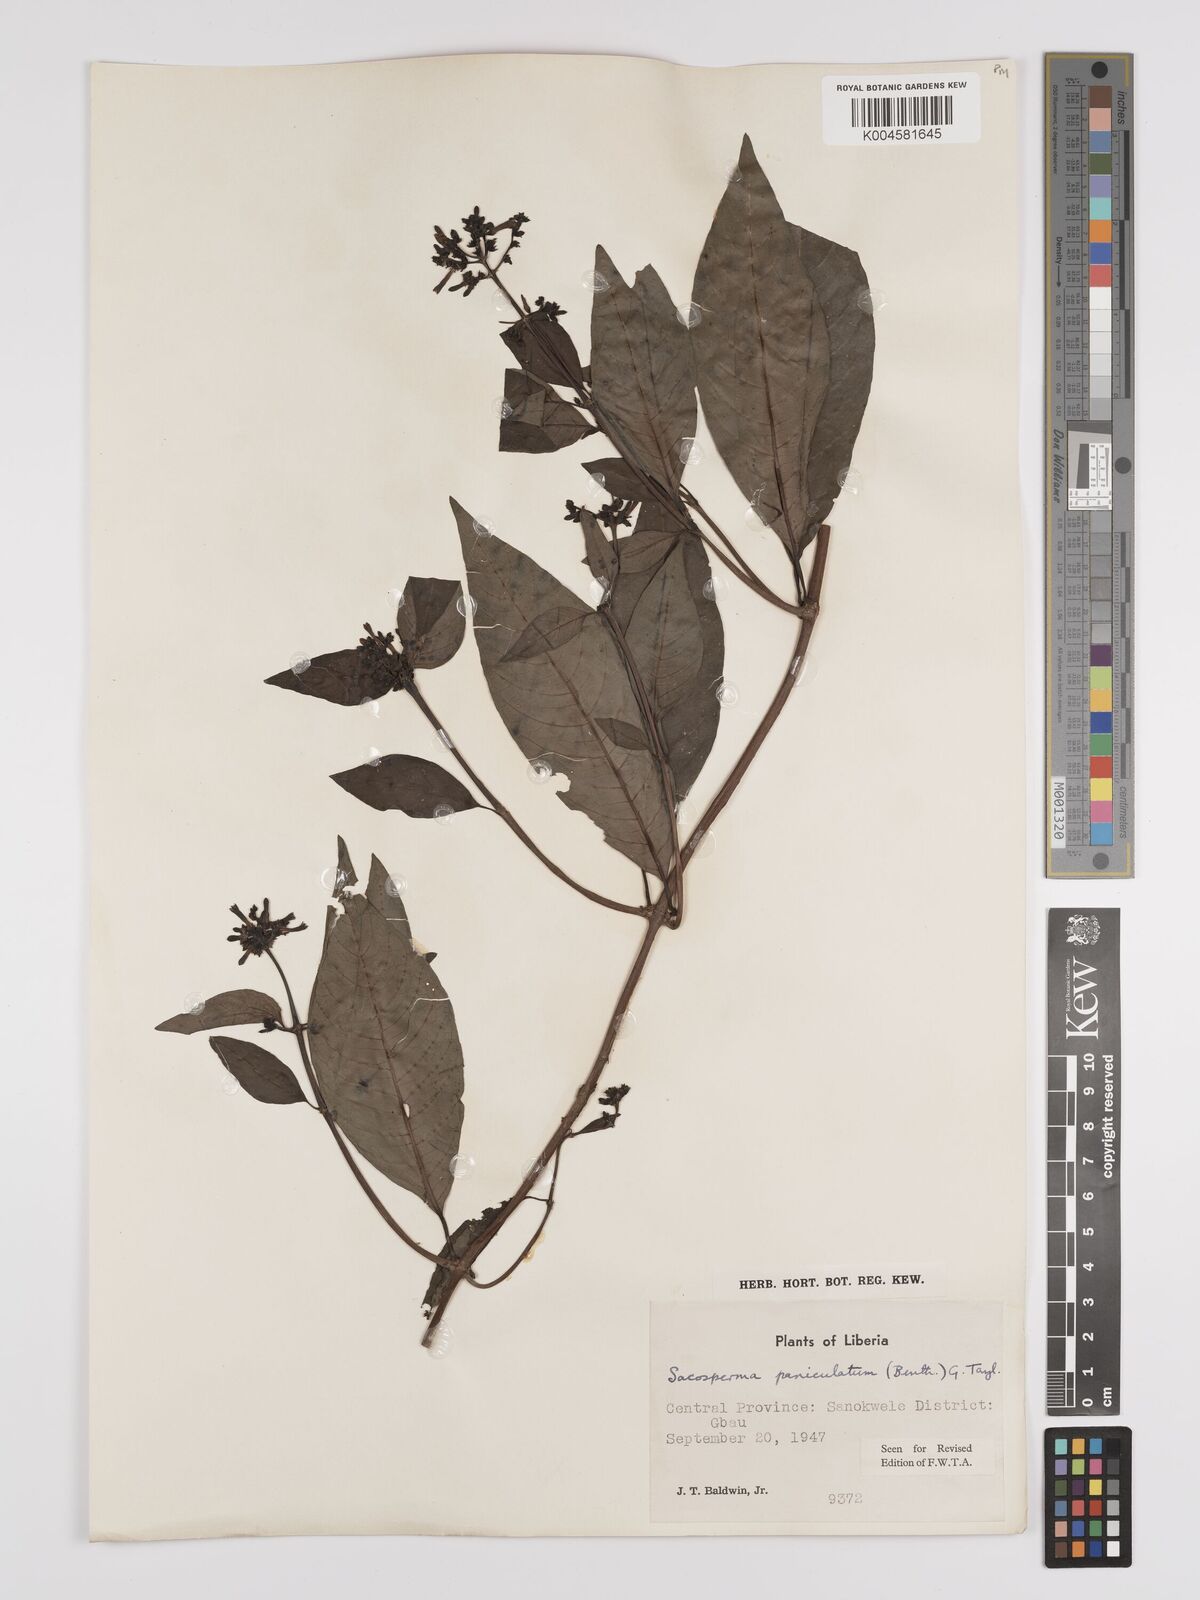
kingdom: Plantae
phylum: Tracheophyta
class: Magnoliopsida
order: Gentianales
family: Rubiaceae
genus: Sacosperma
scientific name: Sacosperma paniculatum
